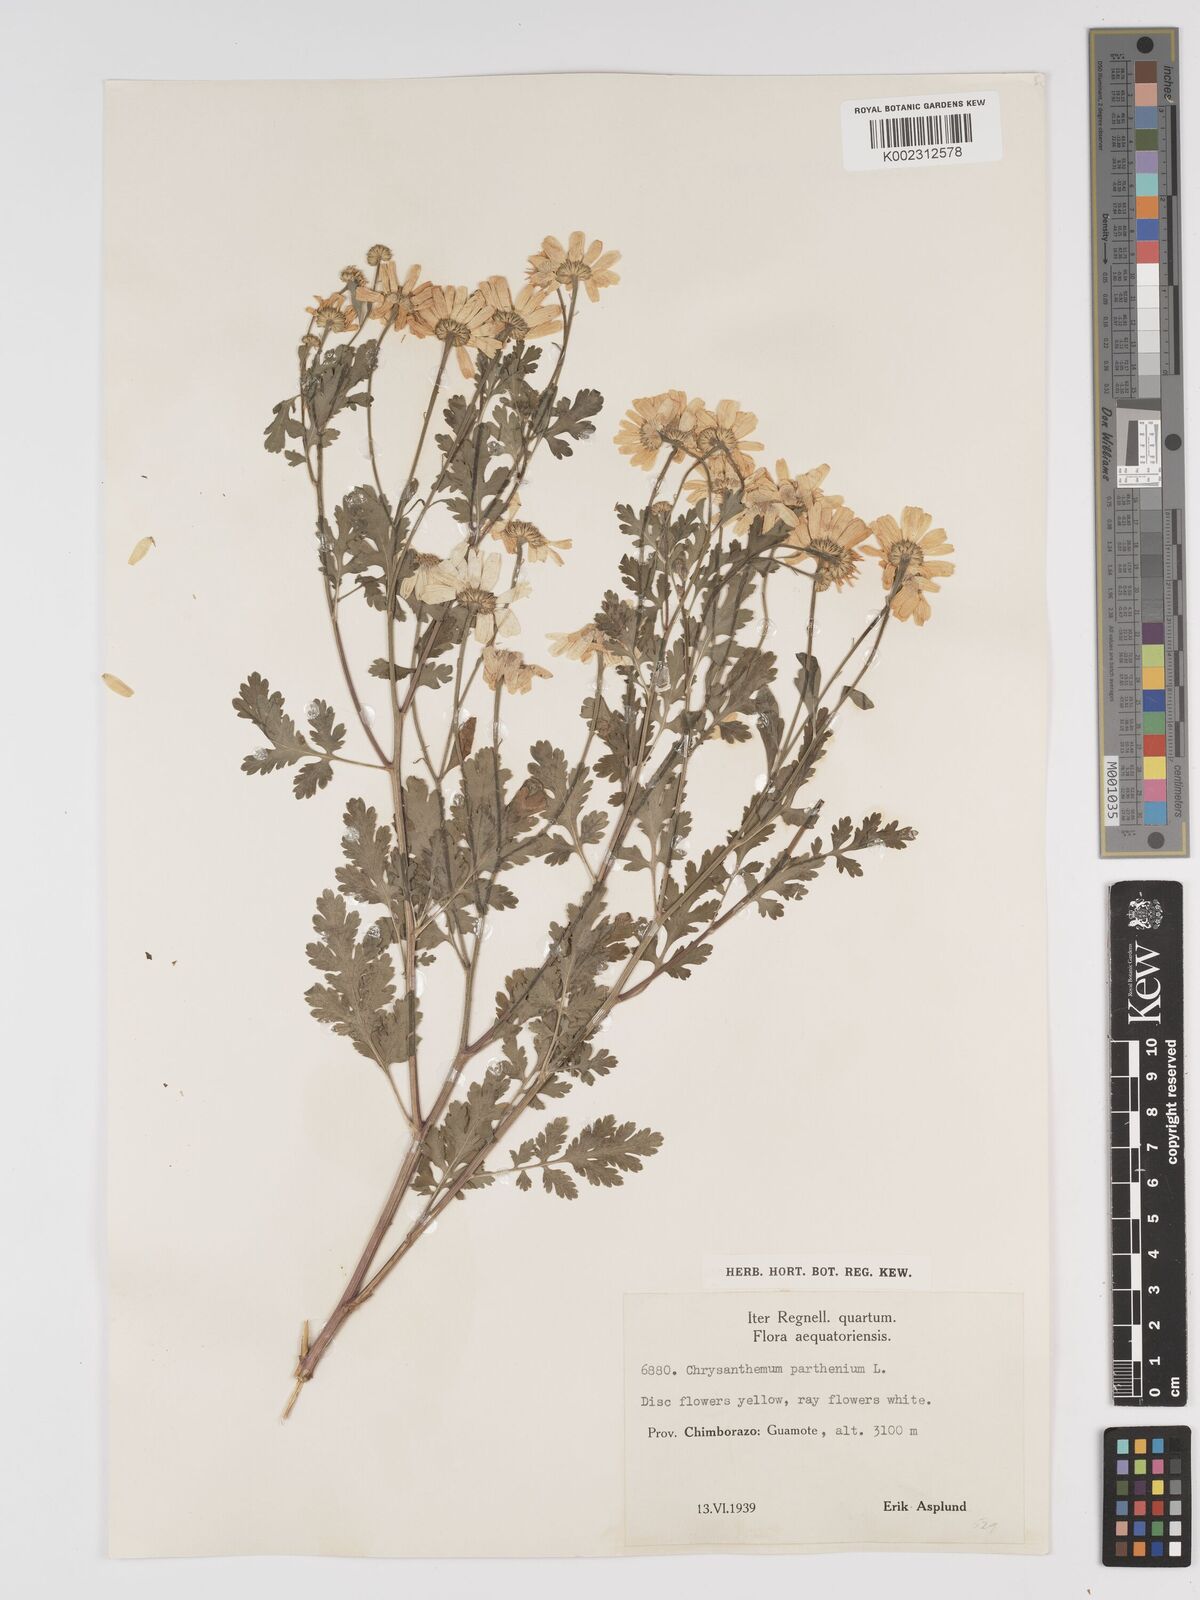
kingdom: Plantae
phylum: Tracheophyta
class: Magnoliopsida
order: Asterales
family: Asteraceae
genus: Tanacetum
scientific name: Tanacetum parthenium
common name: Feverfew
